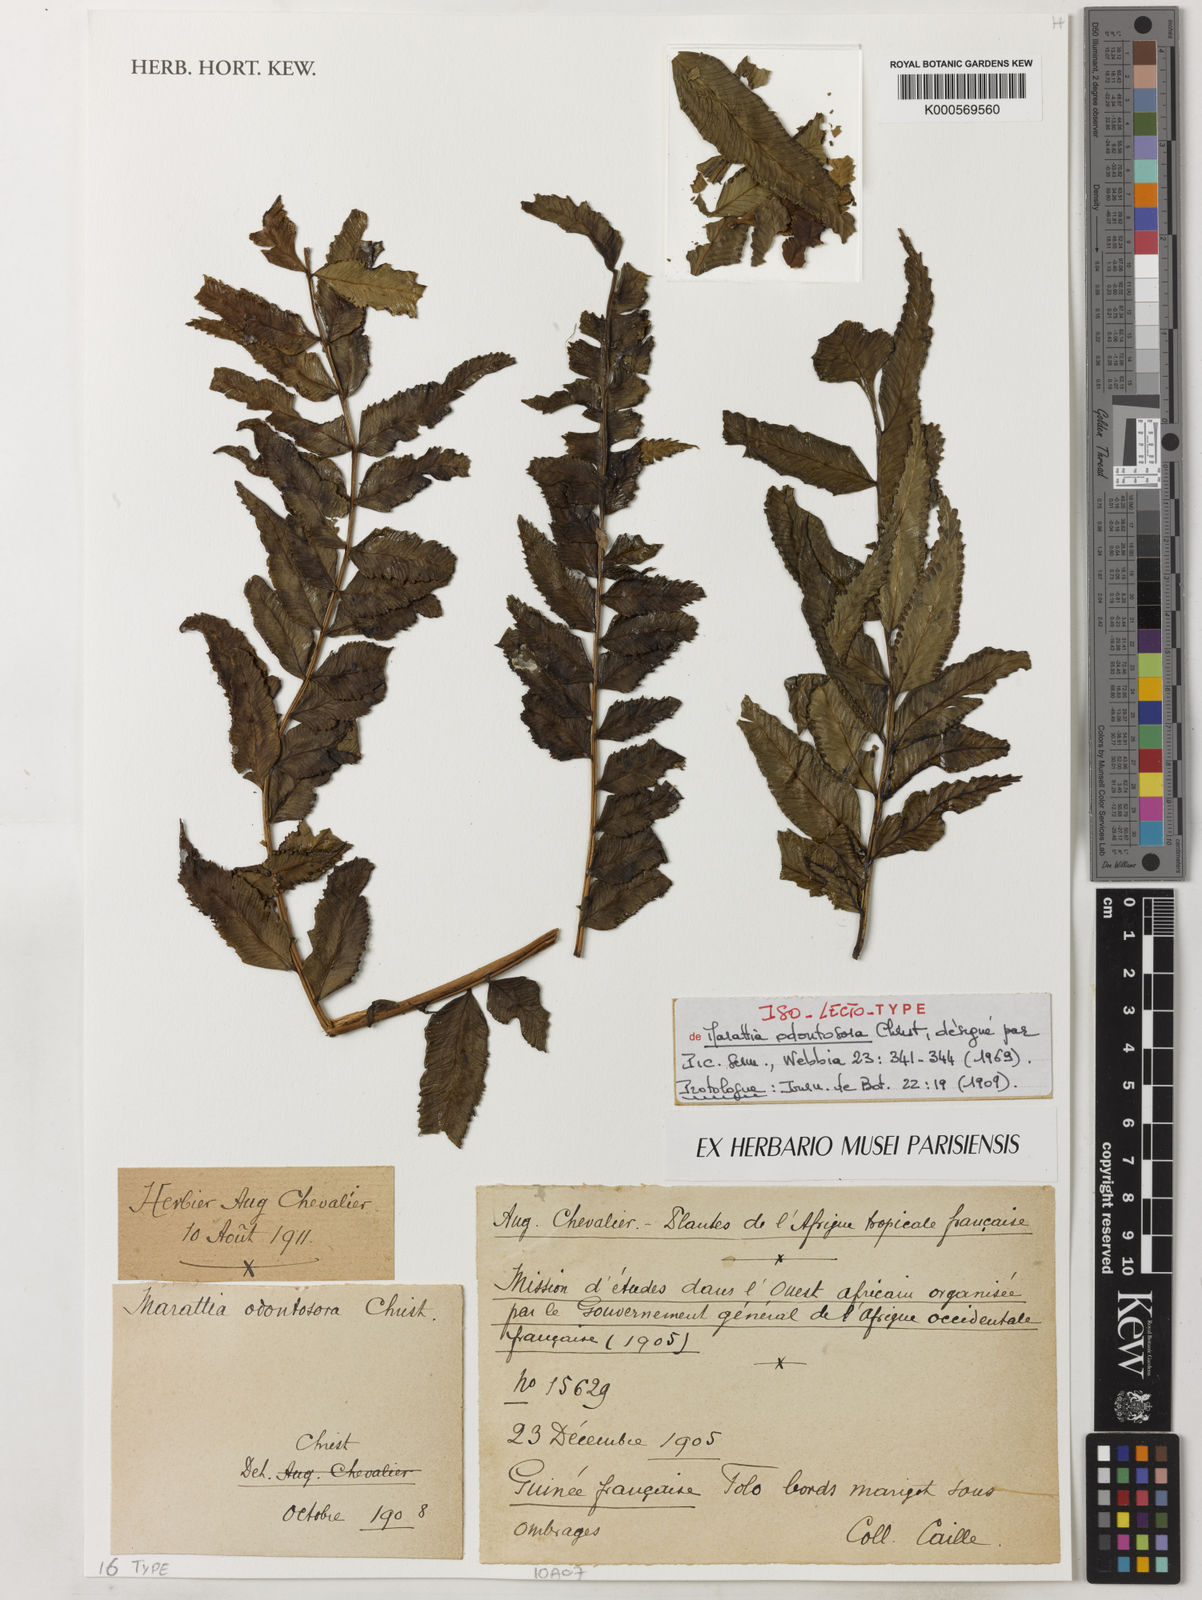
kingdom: Plantae
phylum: Tracheophyta
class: Polypodiopsida
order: Marattiales
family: Marattiaceae
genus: Ptisana
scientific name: Ptisana odontosora
